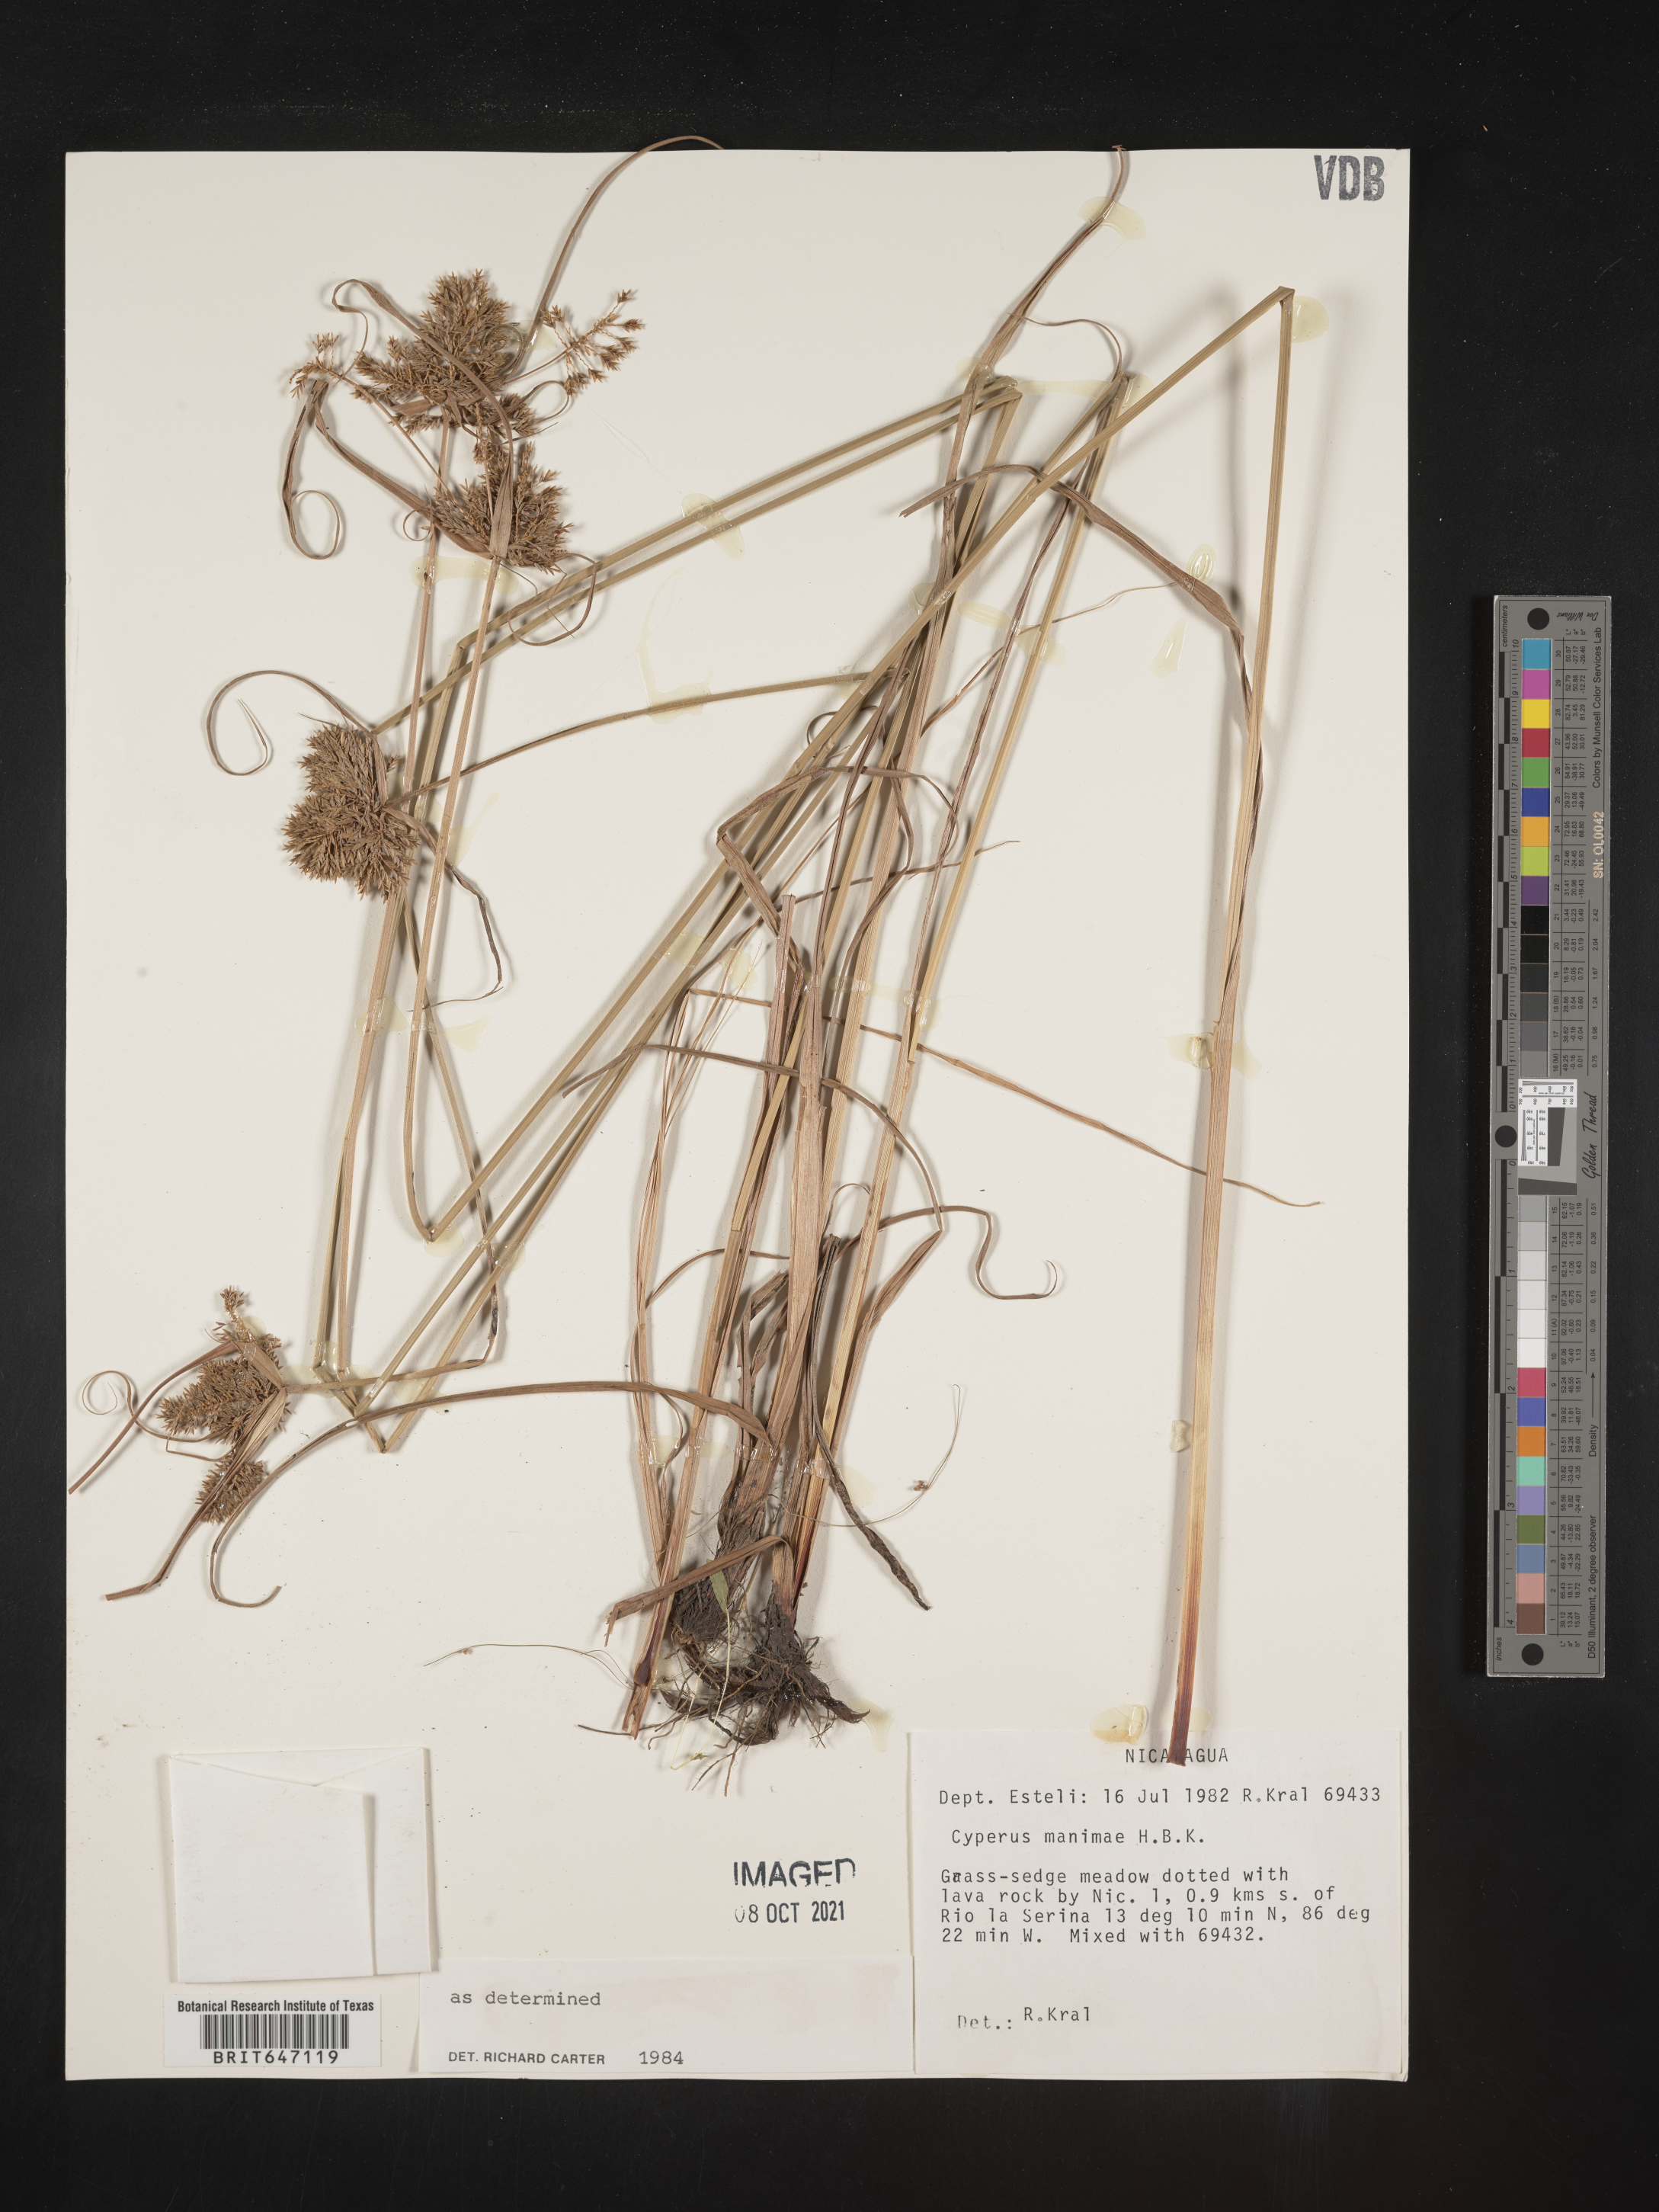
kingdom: Plantae
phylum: Tracheophyta
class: Liliopsida
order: Poales
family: Cyperaceae
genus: Cyperus
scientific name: Cyperus manimae
